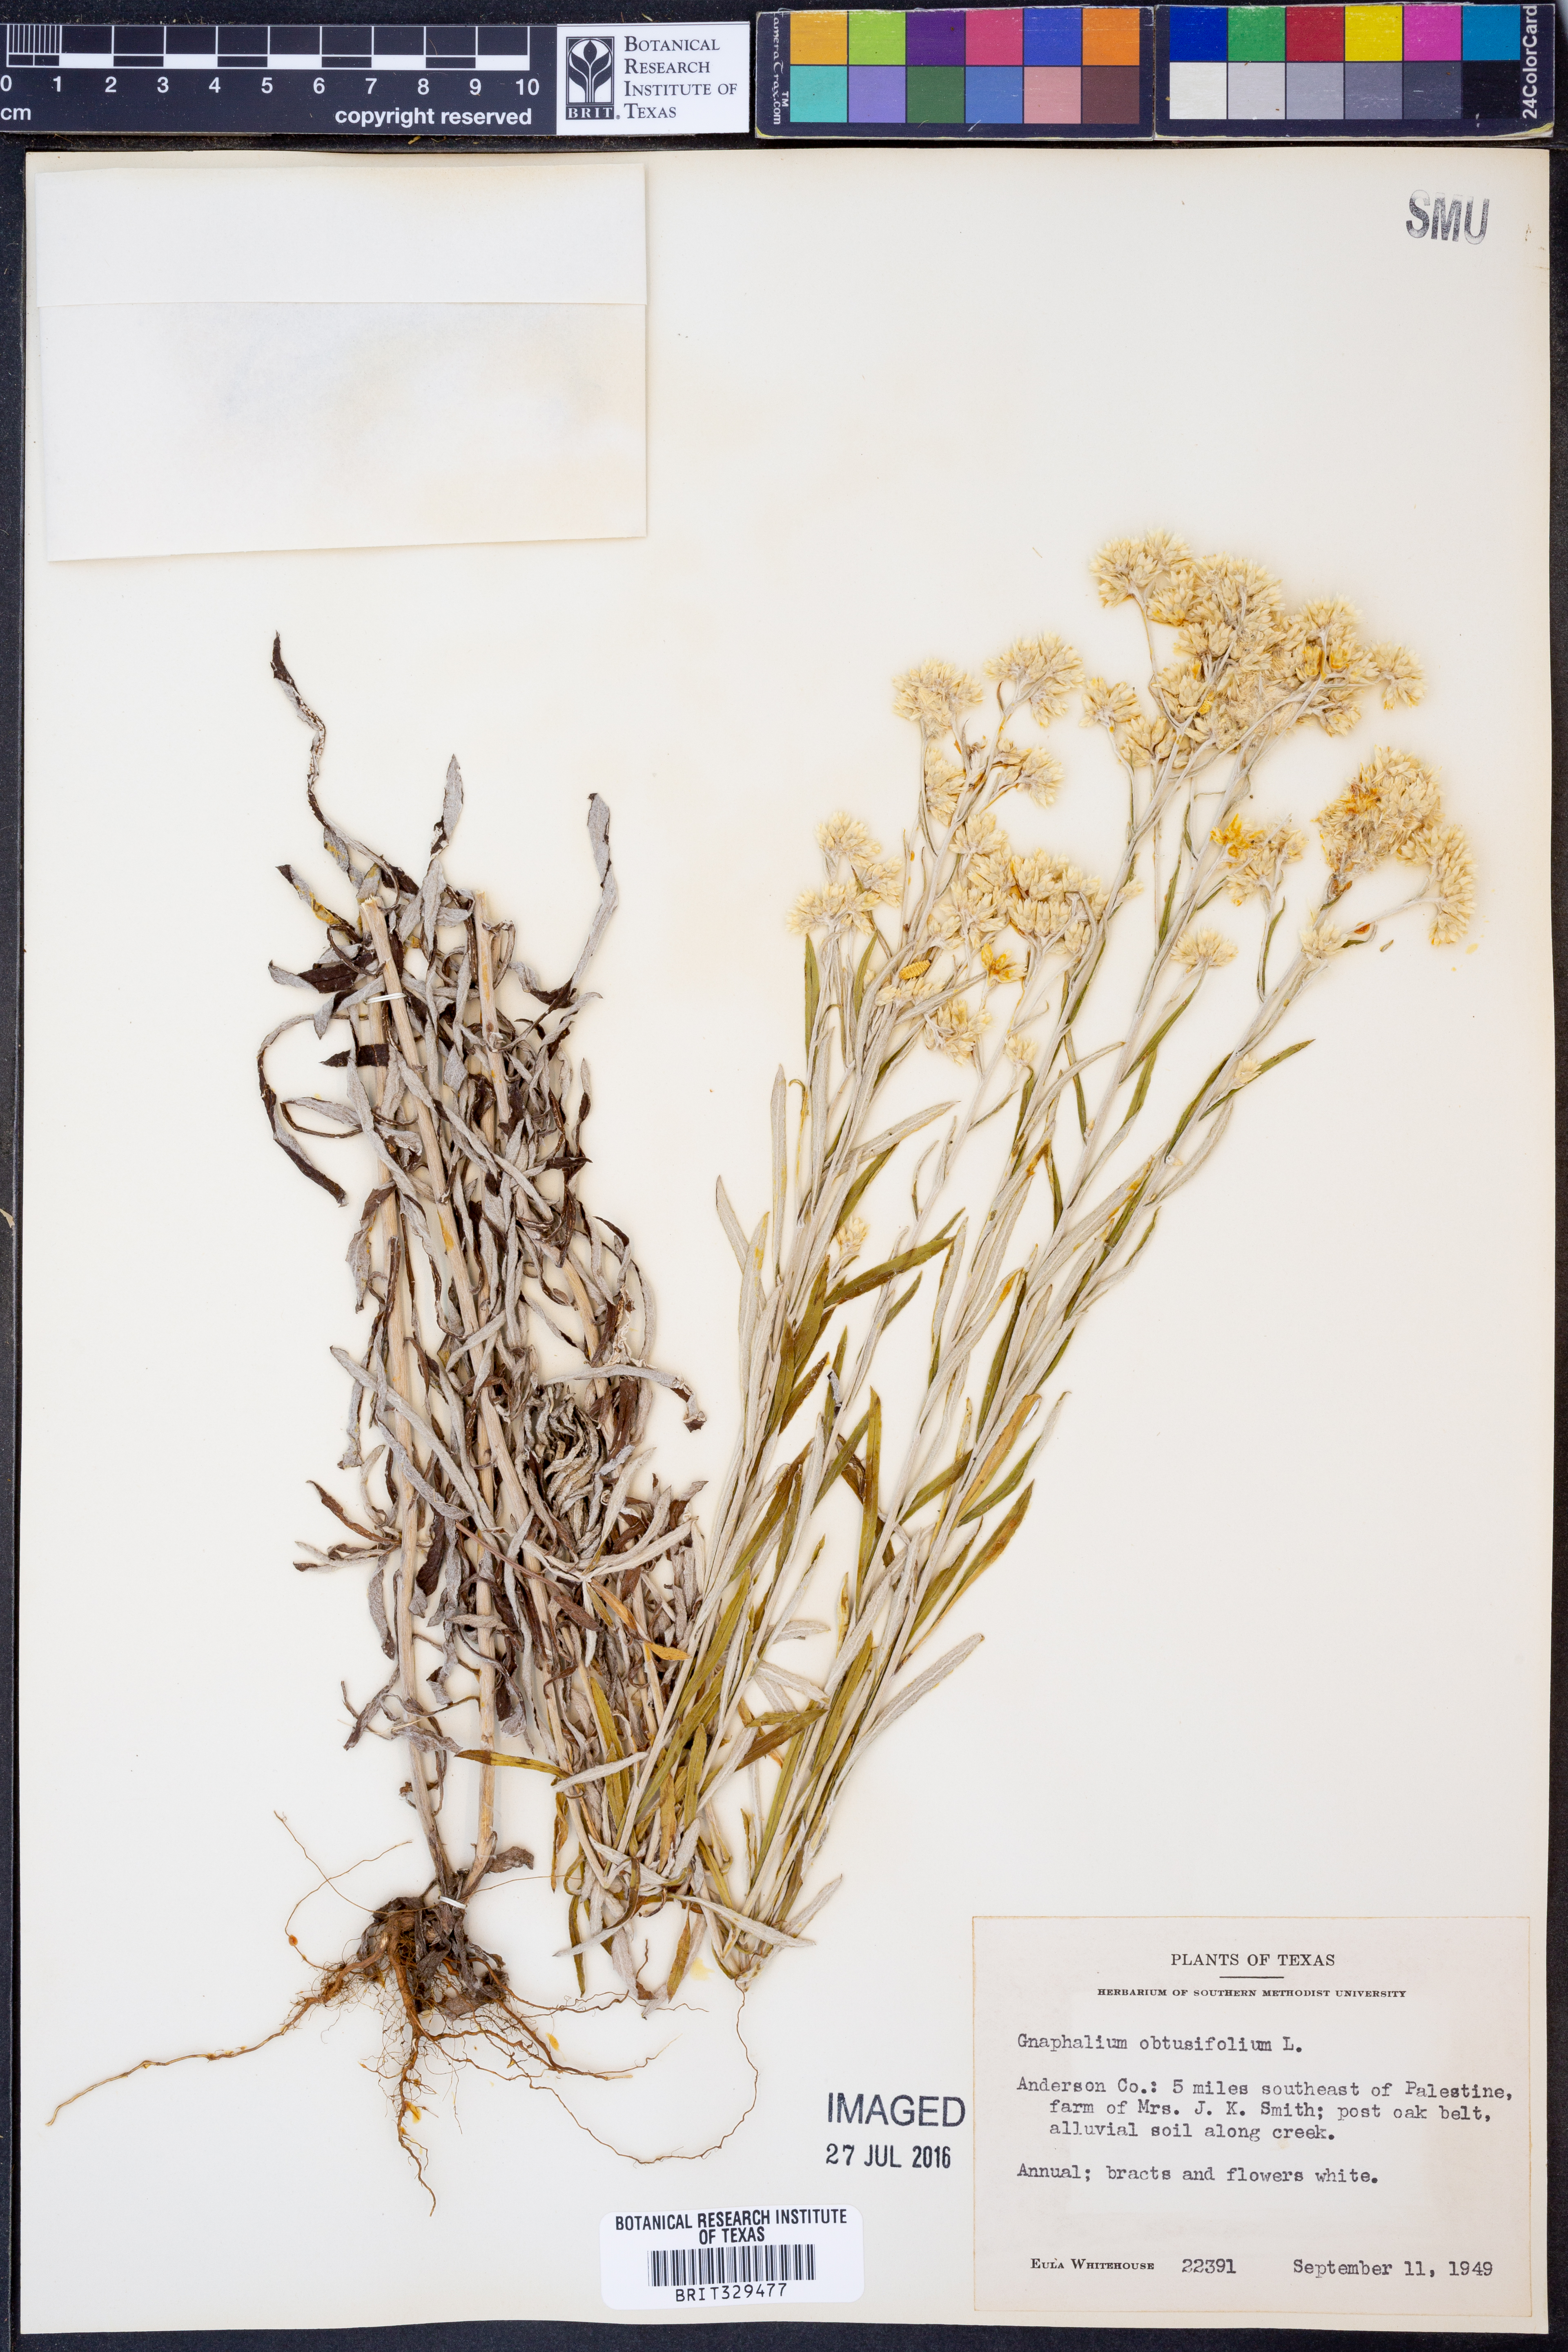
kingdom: Plantae
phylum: Tracheophyta
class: Magnoliopsida
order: Asterales
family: Asteraceae
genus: Pseudognaphalium
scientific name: Pseudognaphalium obtusifolium
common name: Eastern rabbit-tobacco
